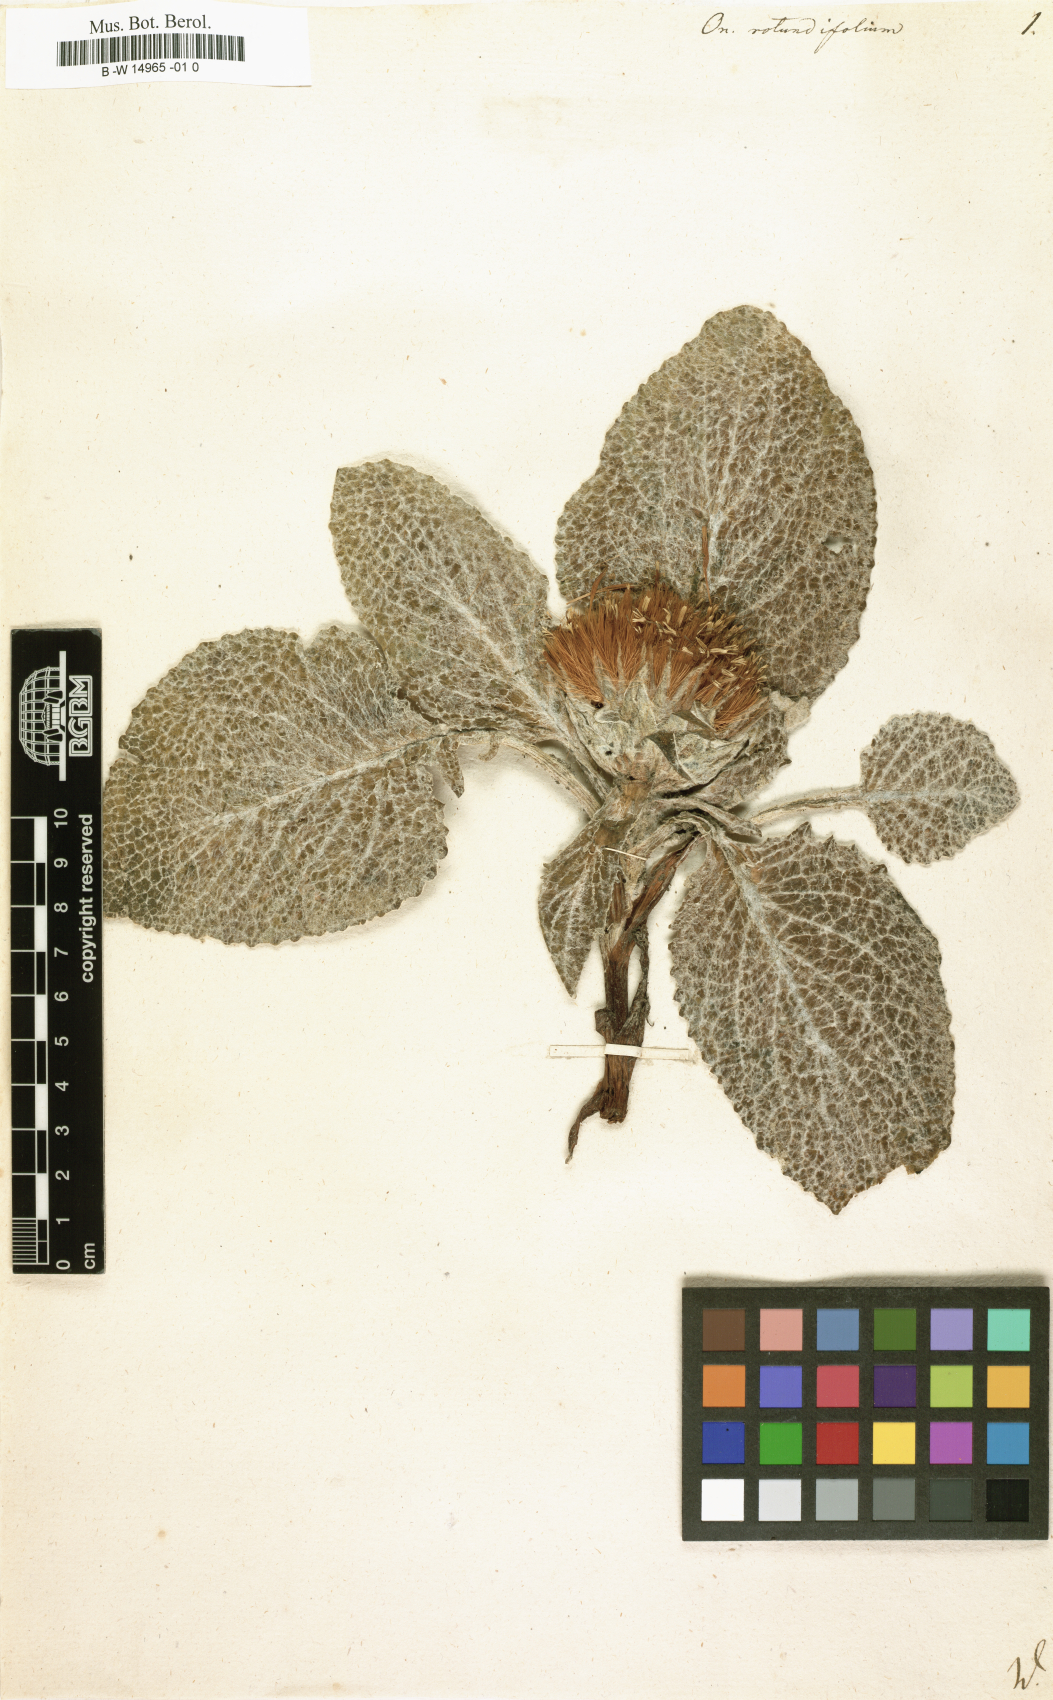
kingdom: Plantae
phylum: Tracheophyta
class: Magnoliopsida
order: Asterales
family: Asteraceae
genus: Berardia
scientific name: Berardia lanuginosa
